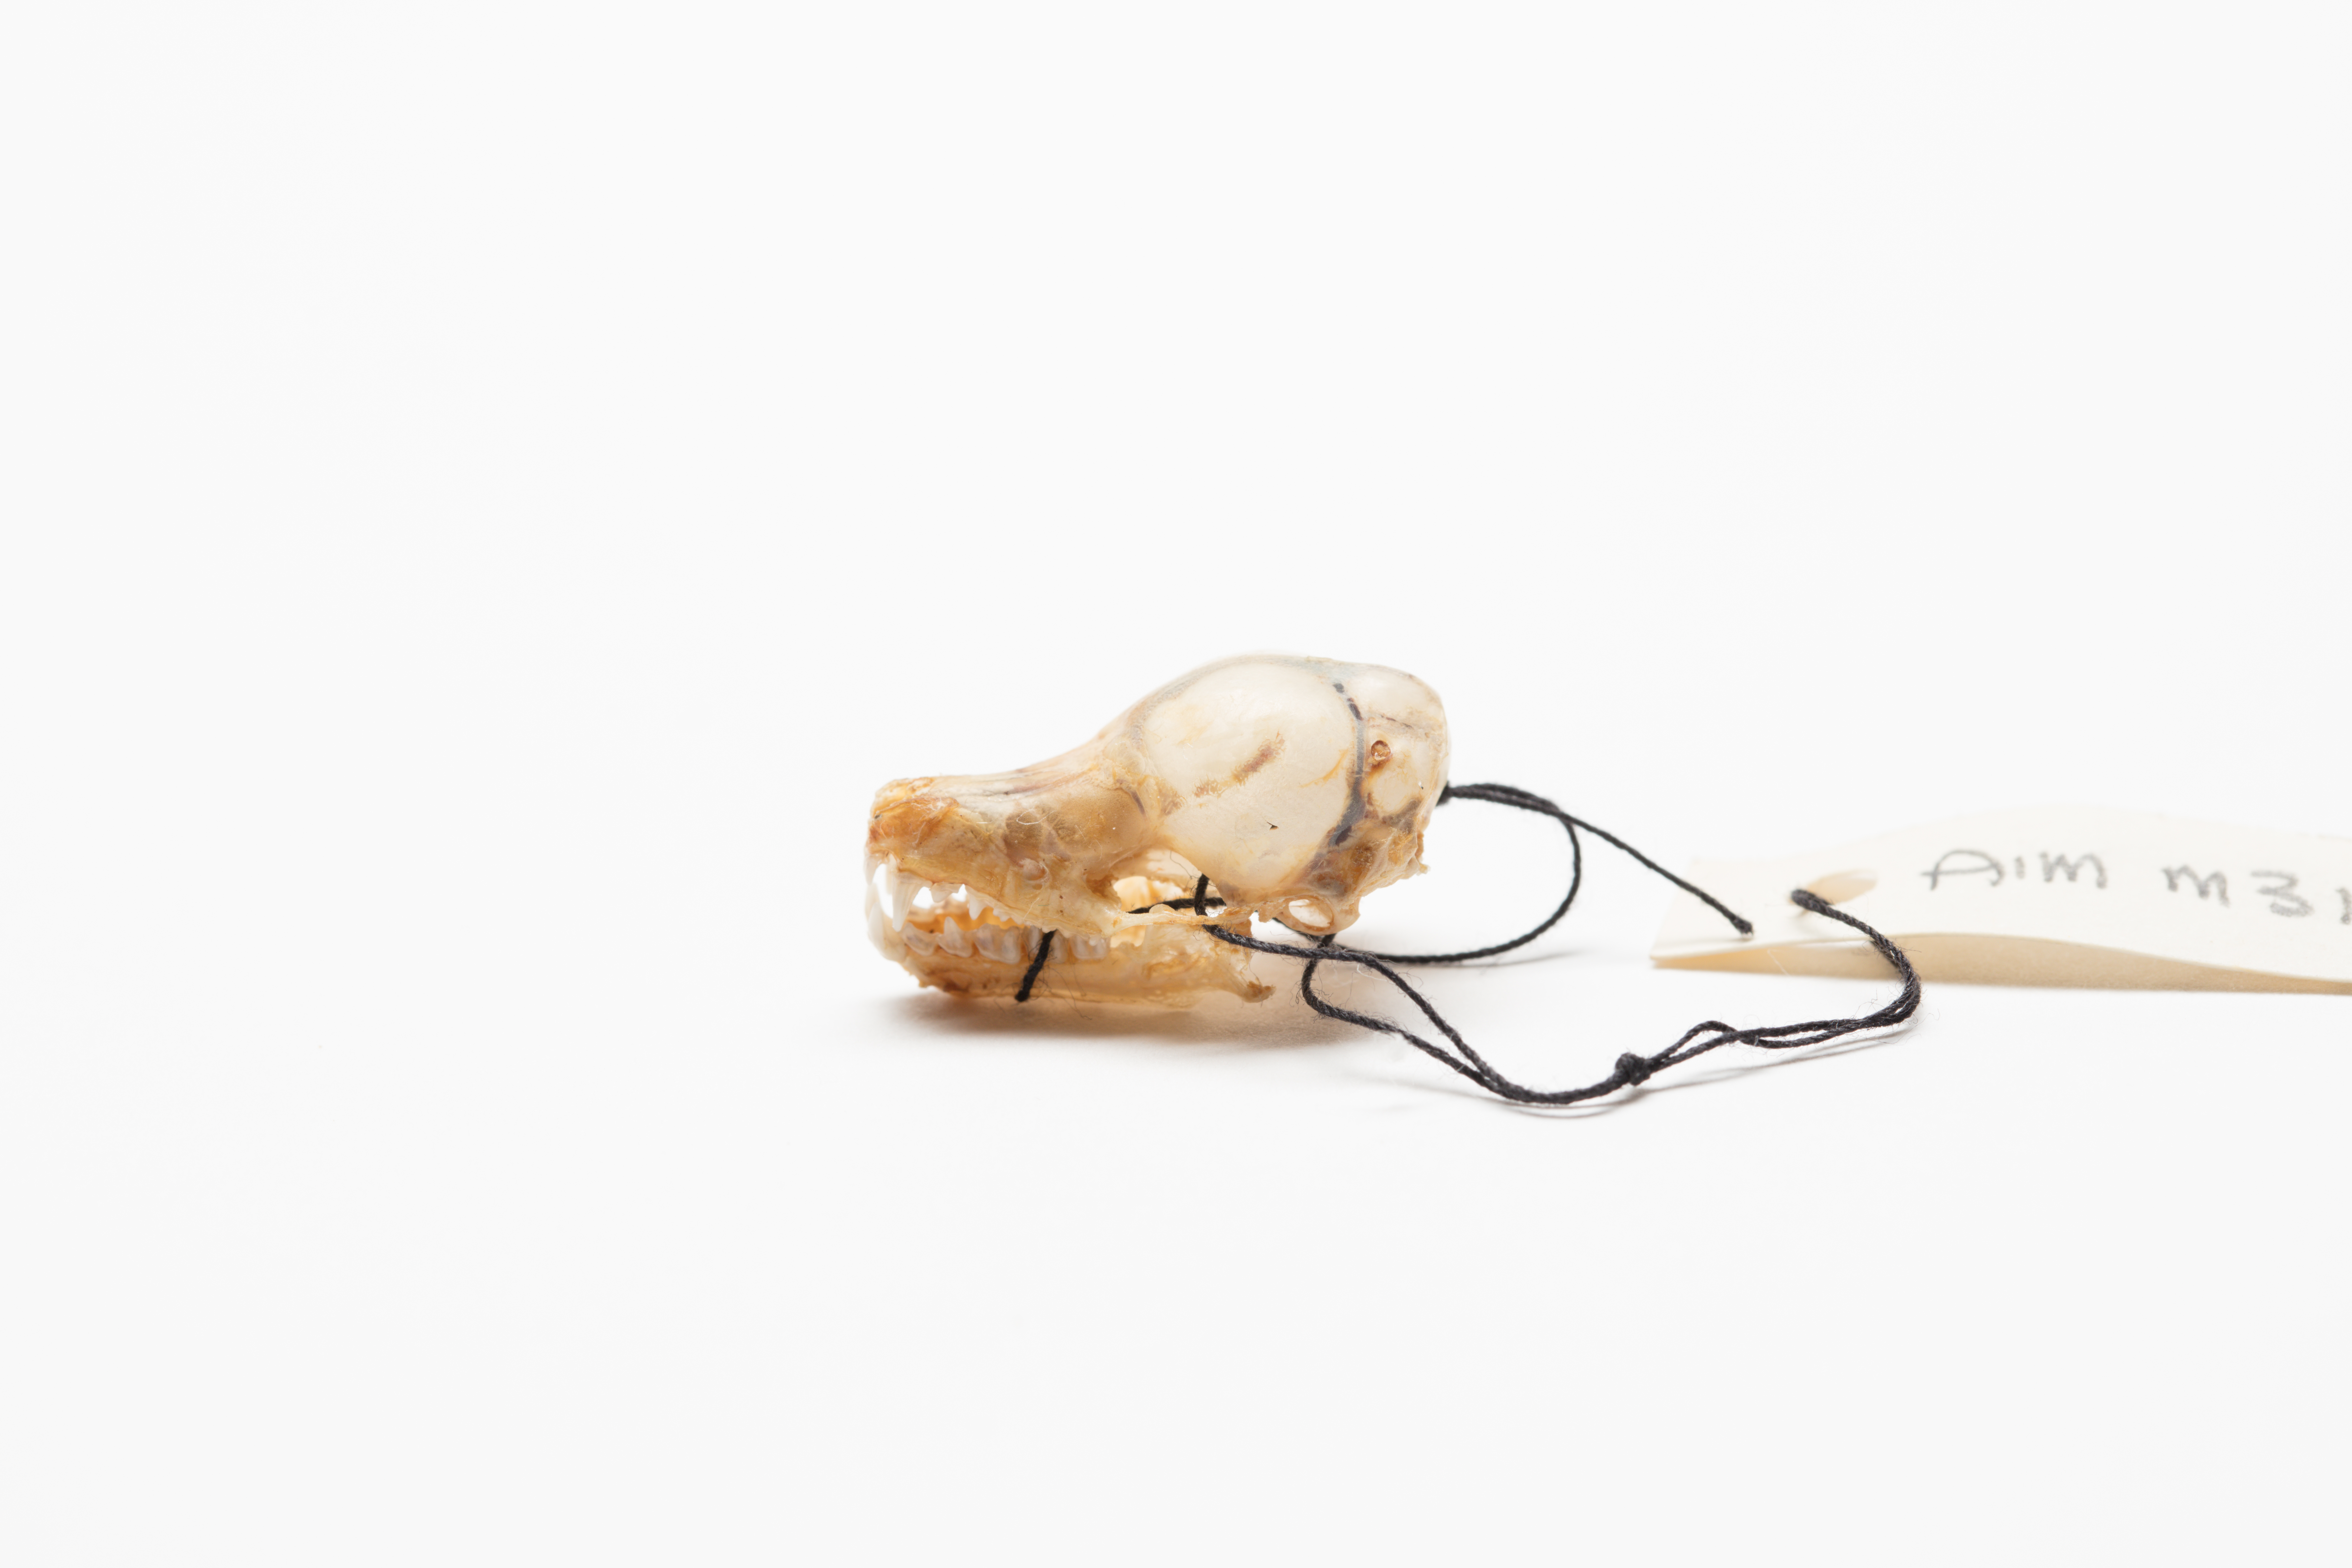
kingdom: Animalia
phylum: Chordata
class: Mammalia
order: Chiroptera
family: Mystacinidae
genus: Mystacina
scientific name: Mystacina tuberculata
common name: New zealand lesser short-tailed bat
